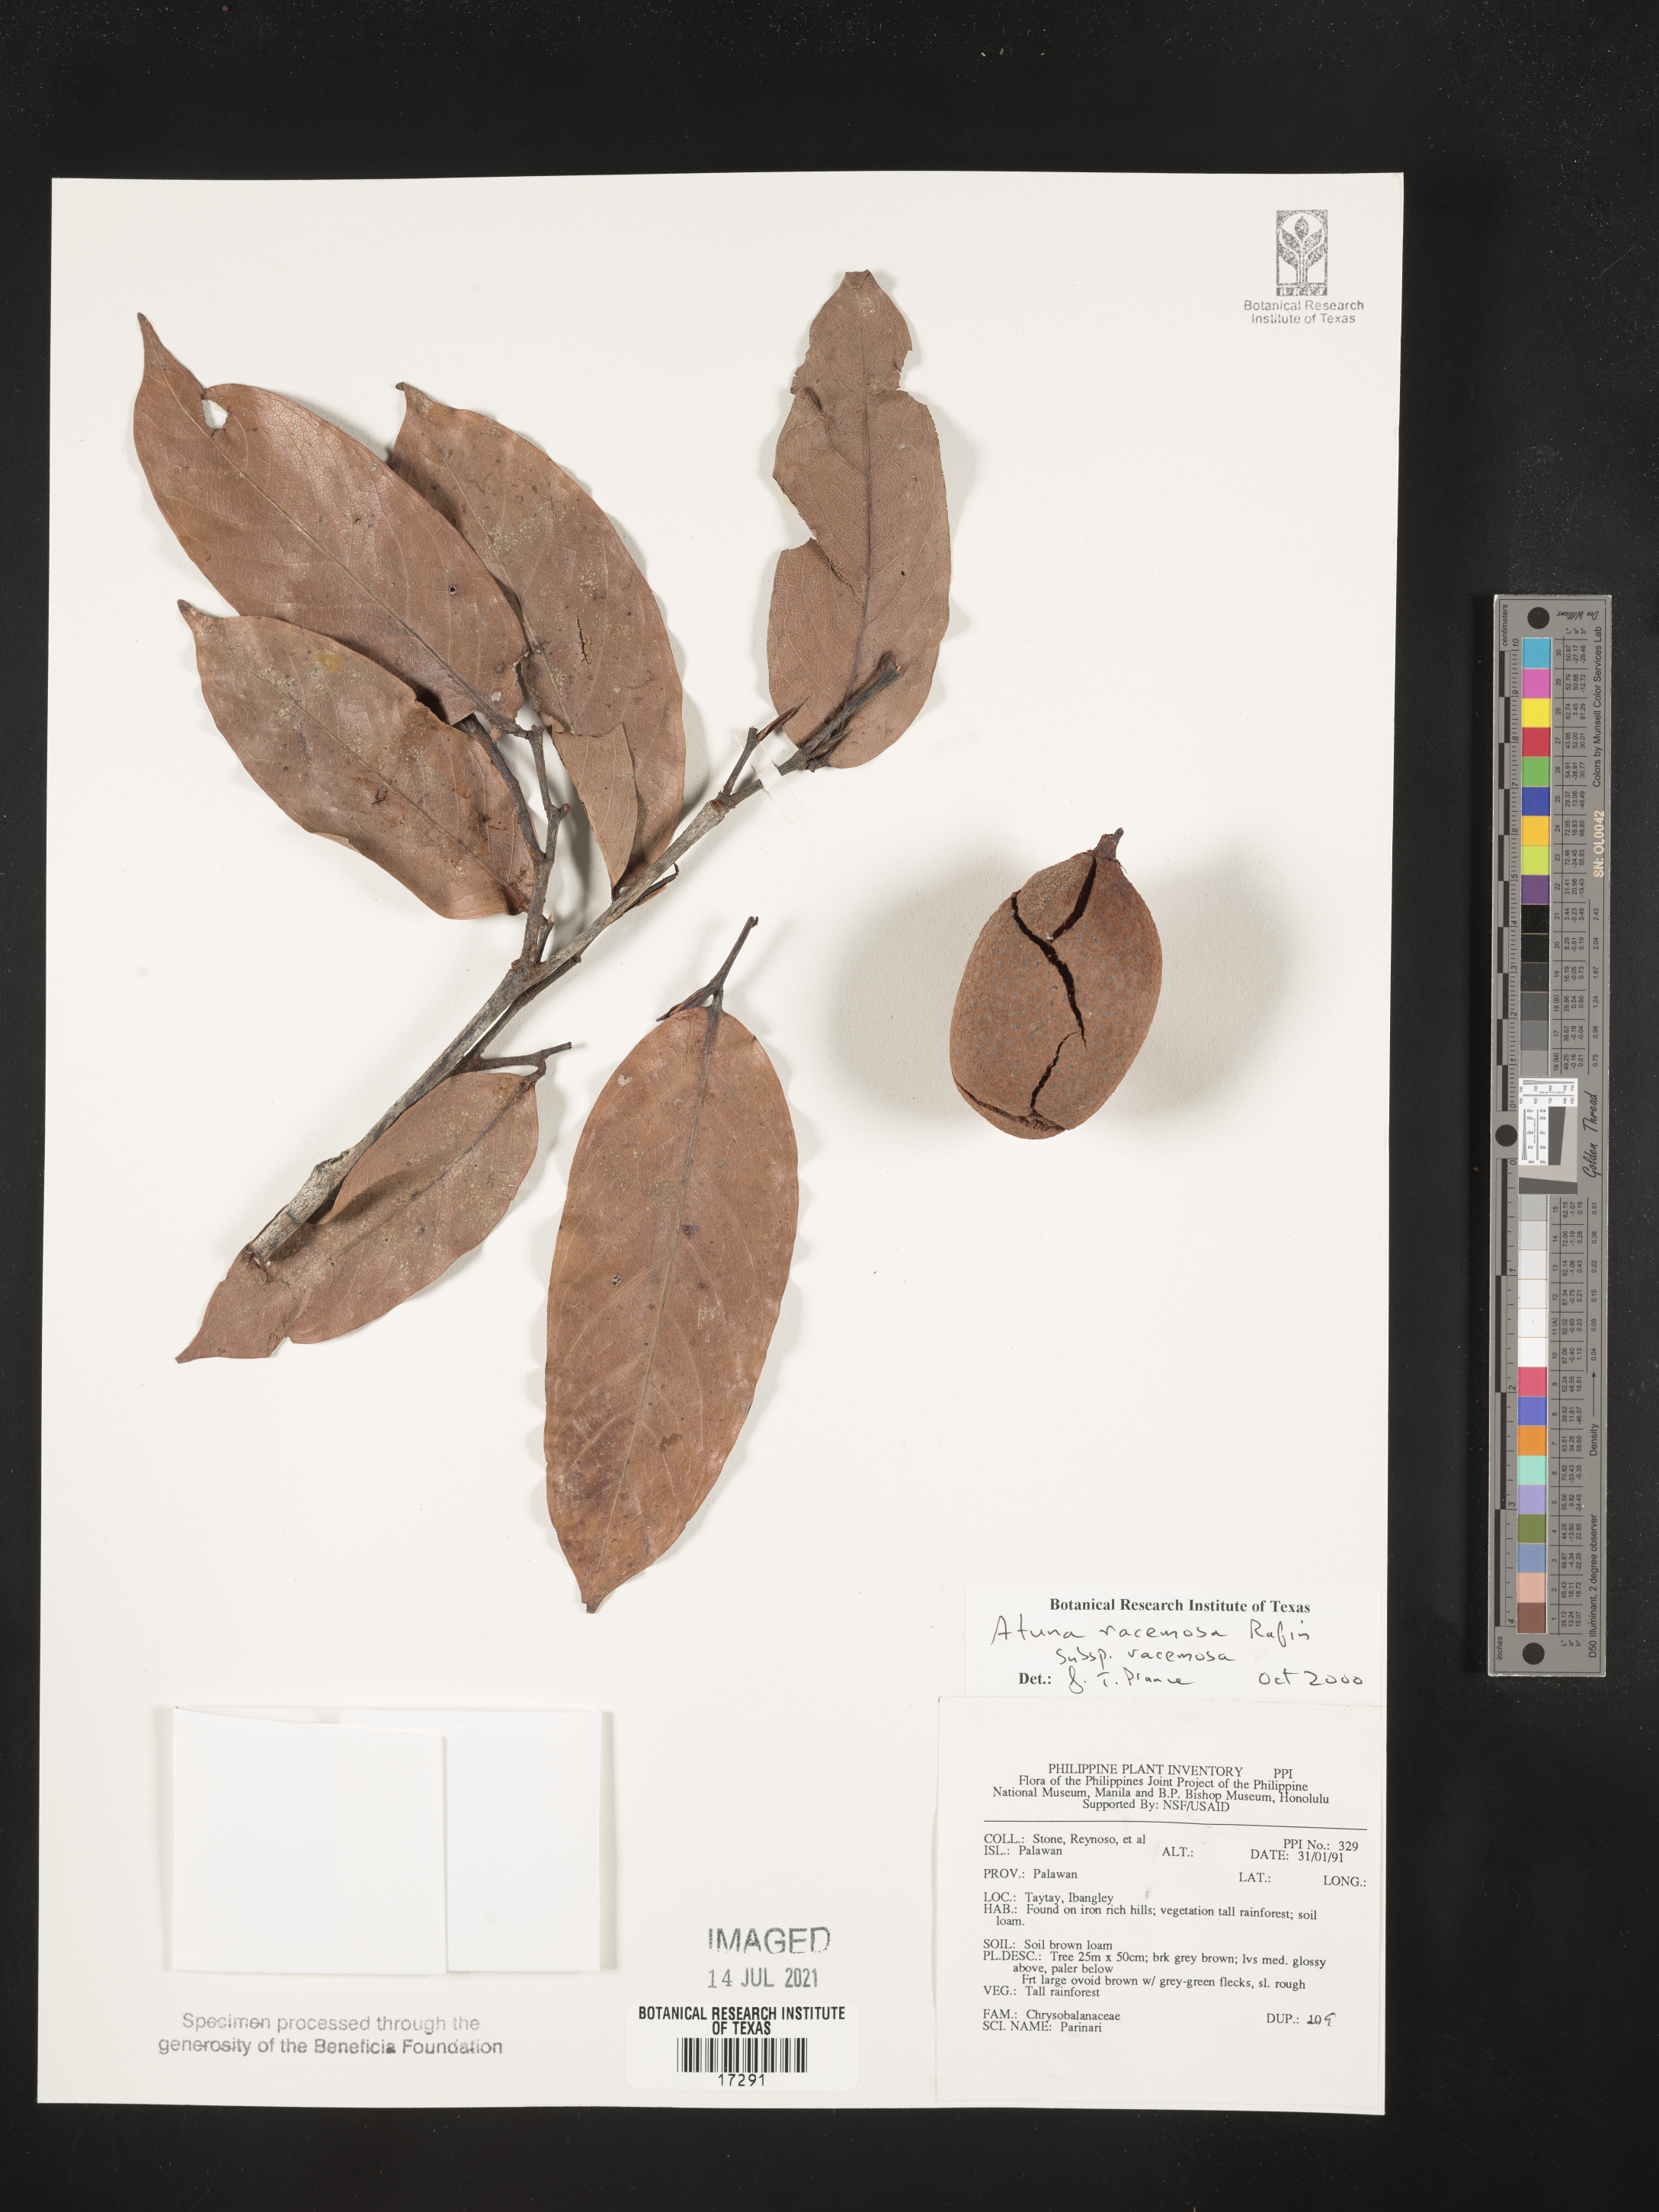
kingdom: Plantae
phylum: Tracheophyta
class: Magnoliopsida
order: Malpighiales
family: Chrysobalanaceae
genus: Atuna
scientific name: Atuna excelsa
